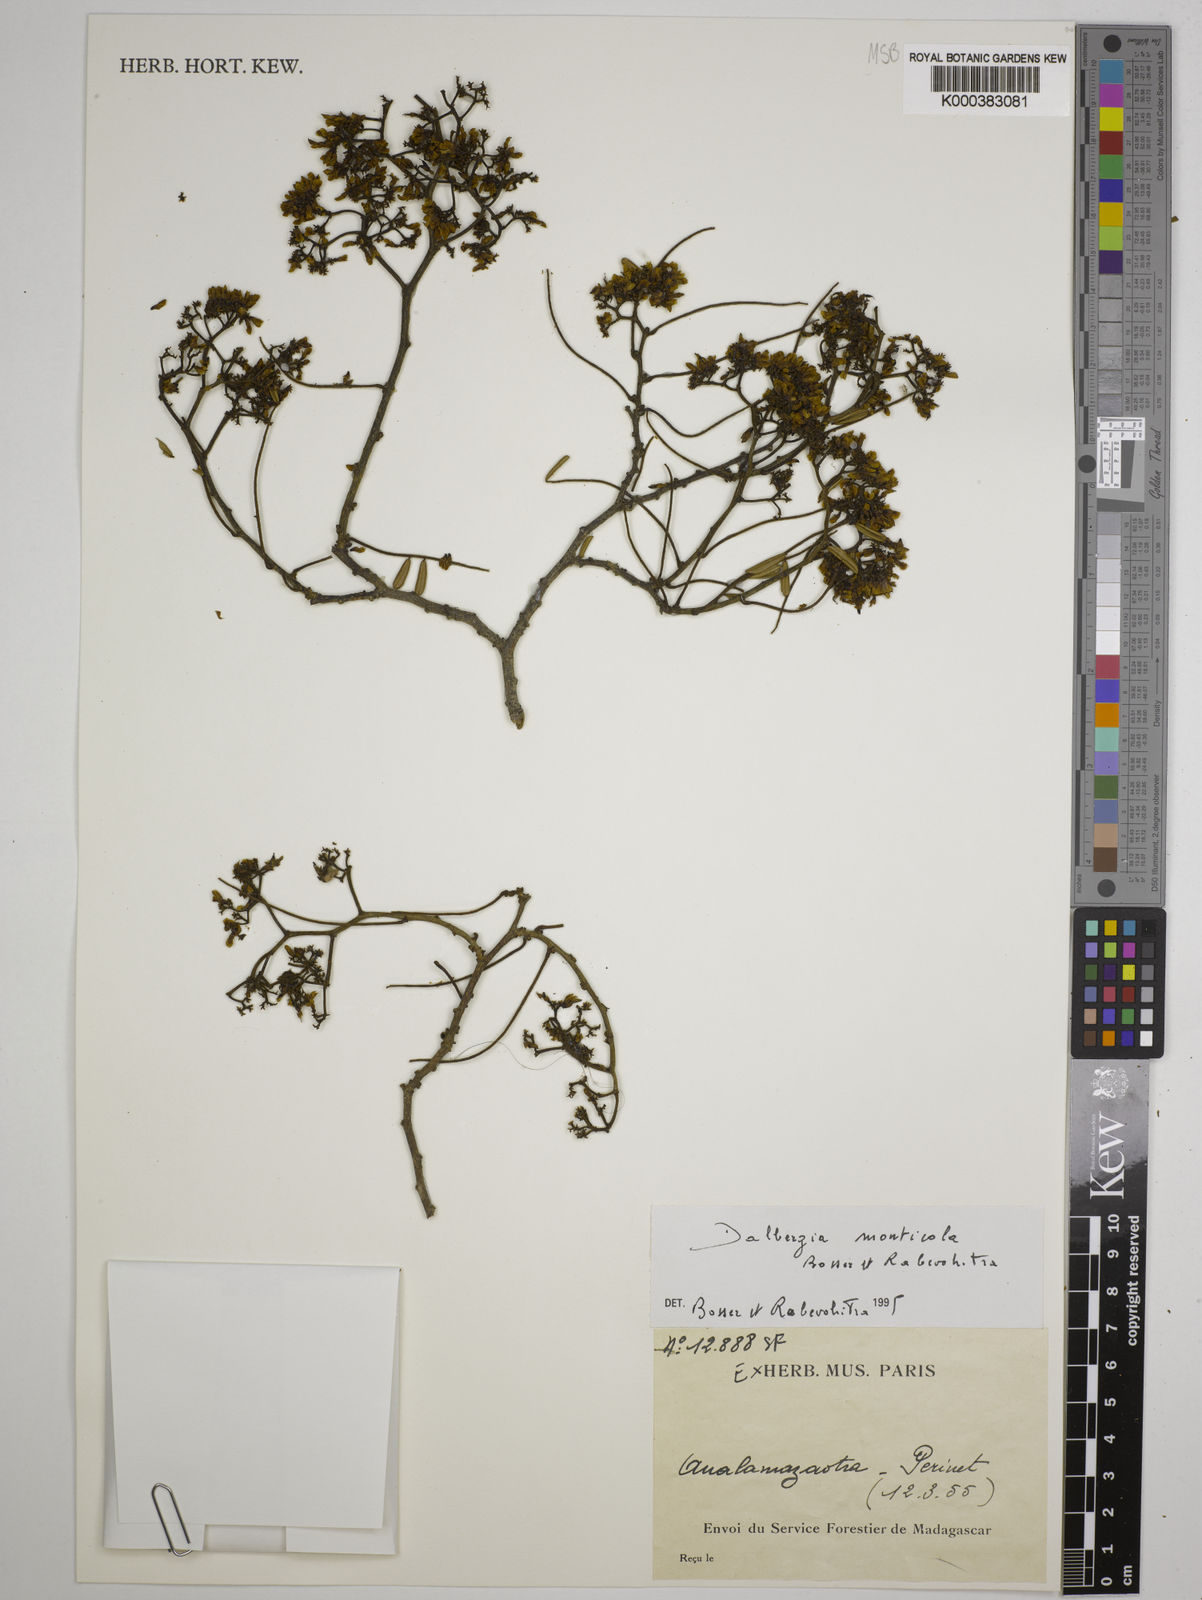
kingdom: Plantae
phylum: Tracheophyta
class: Magnoliopsida
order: Fabales
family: Fabaceae
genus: Dalbergia
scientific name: Dalbergia monticola
